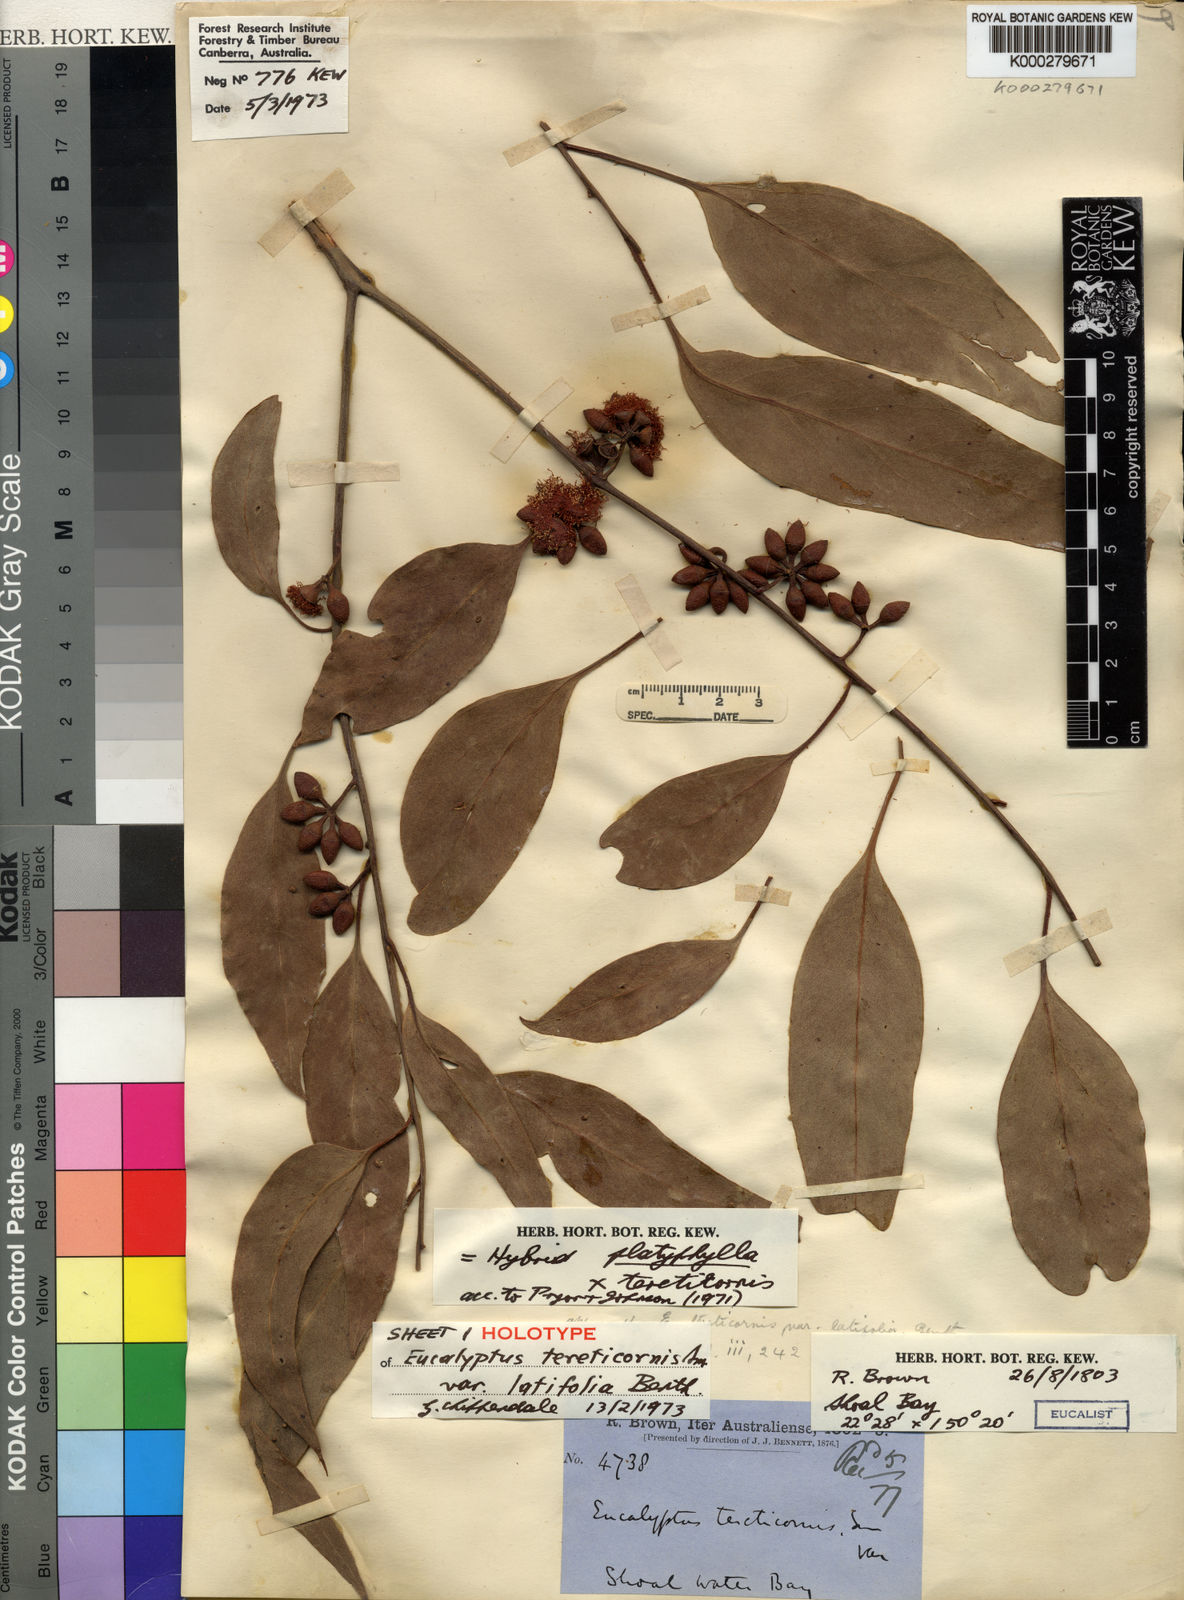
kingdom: Plantae
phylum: Tracheophyta
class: Magnoliopsida
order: Myrtales
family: Myrtaceae
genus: Eucalyptus
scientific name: Eucalyptus tereticornis
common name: Forest redgum
